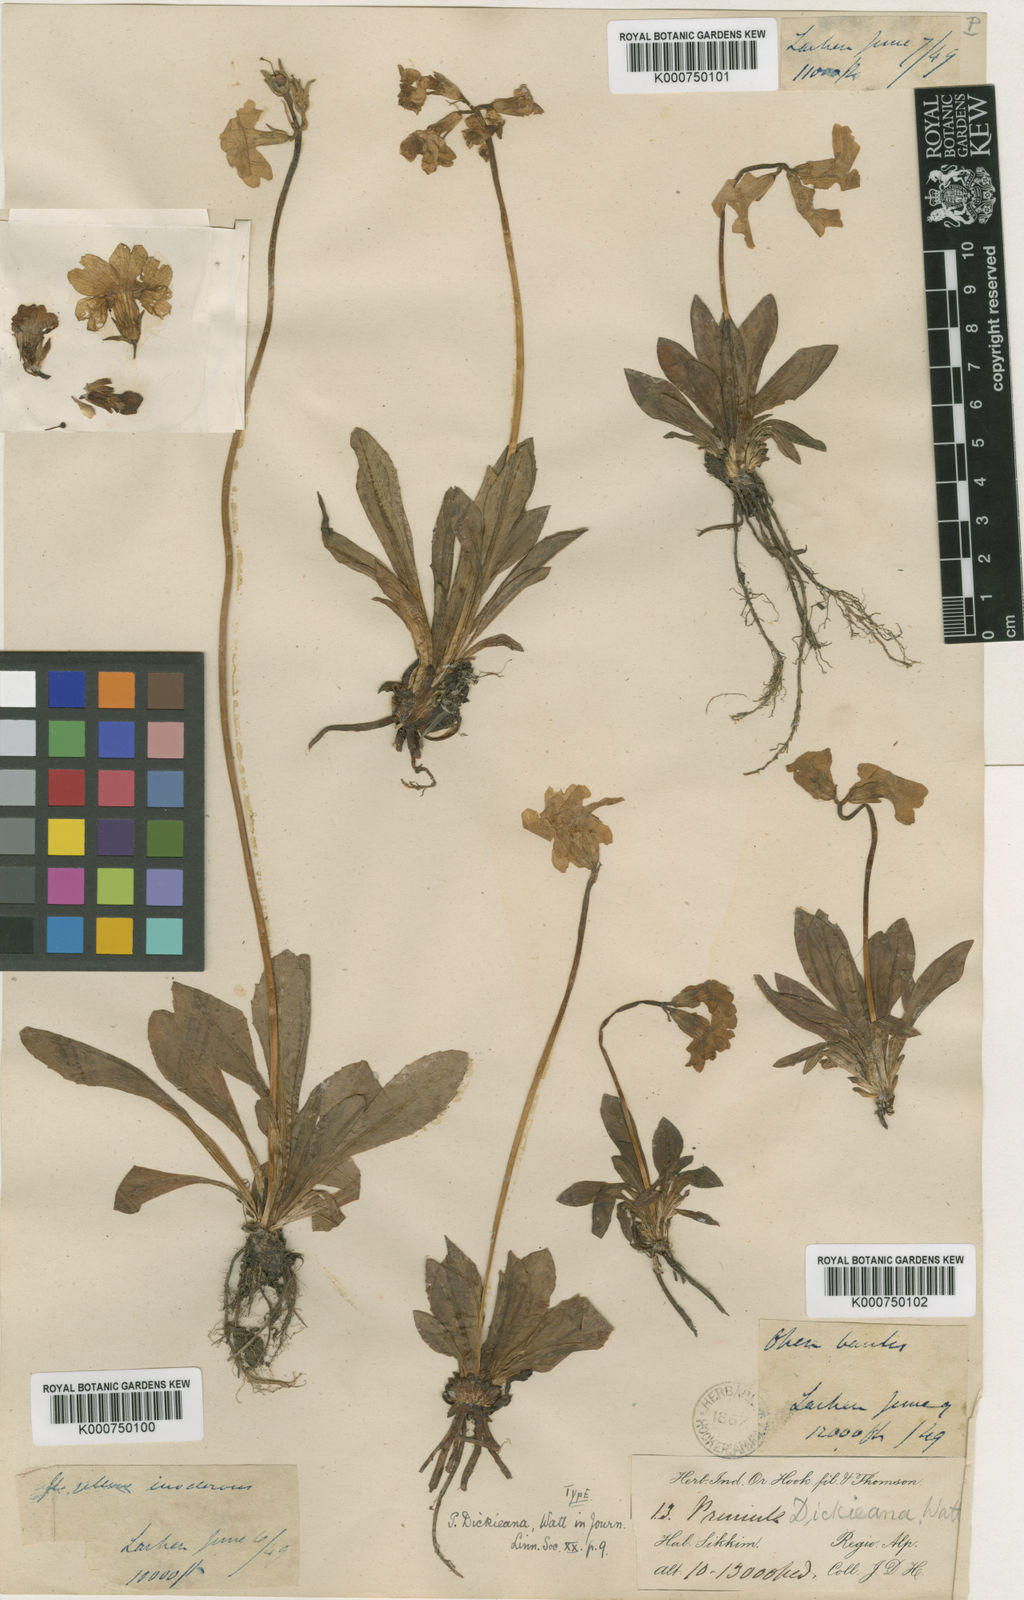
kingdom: Plantae
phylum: Tracheophyta
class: Magnoliopsida
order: Ericales
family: Primulaceae
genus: Primula
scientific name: Primula dickieana
